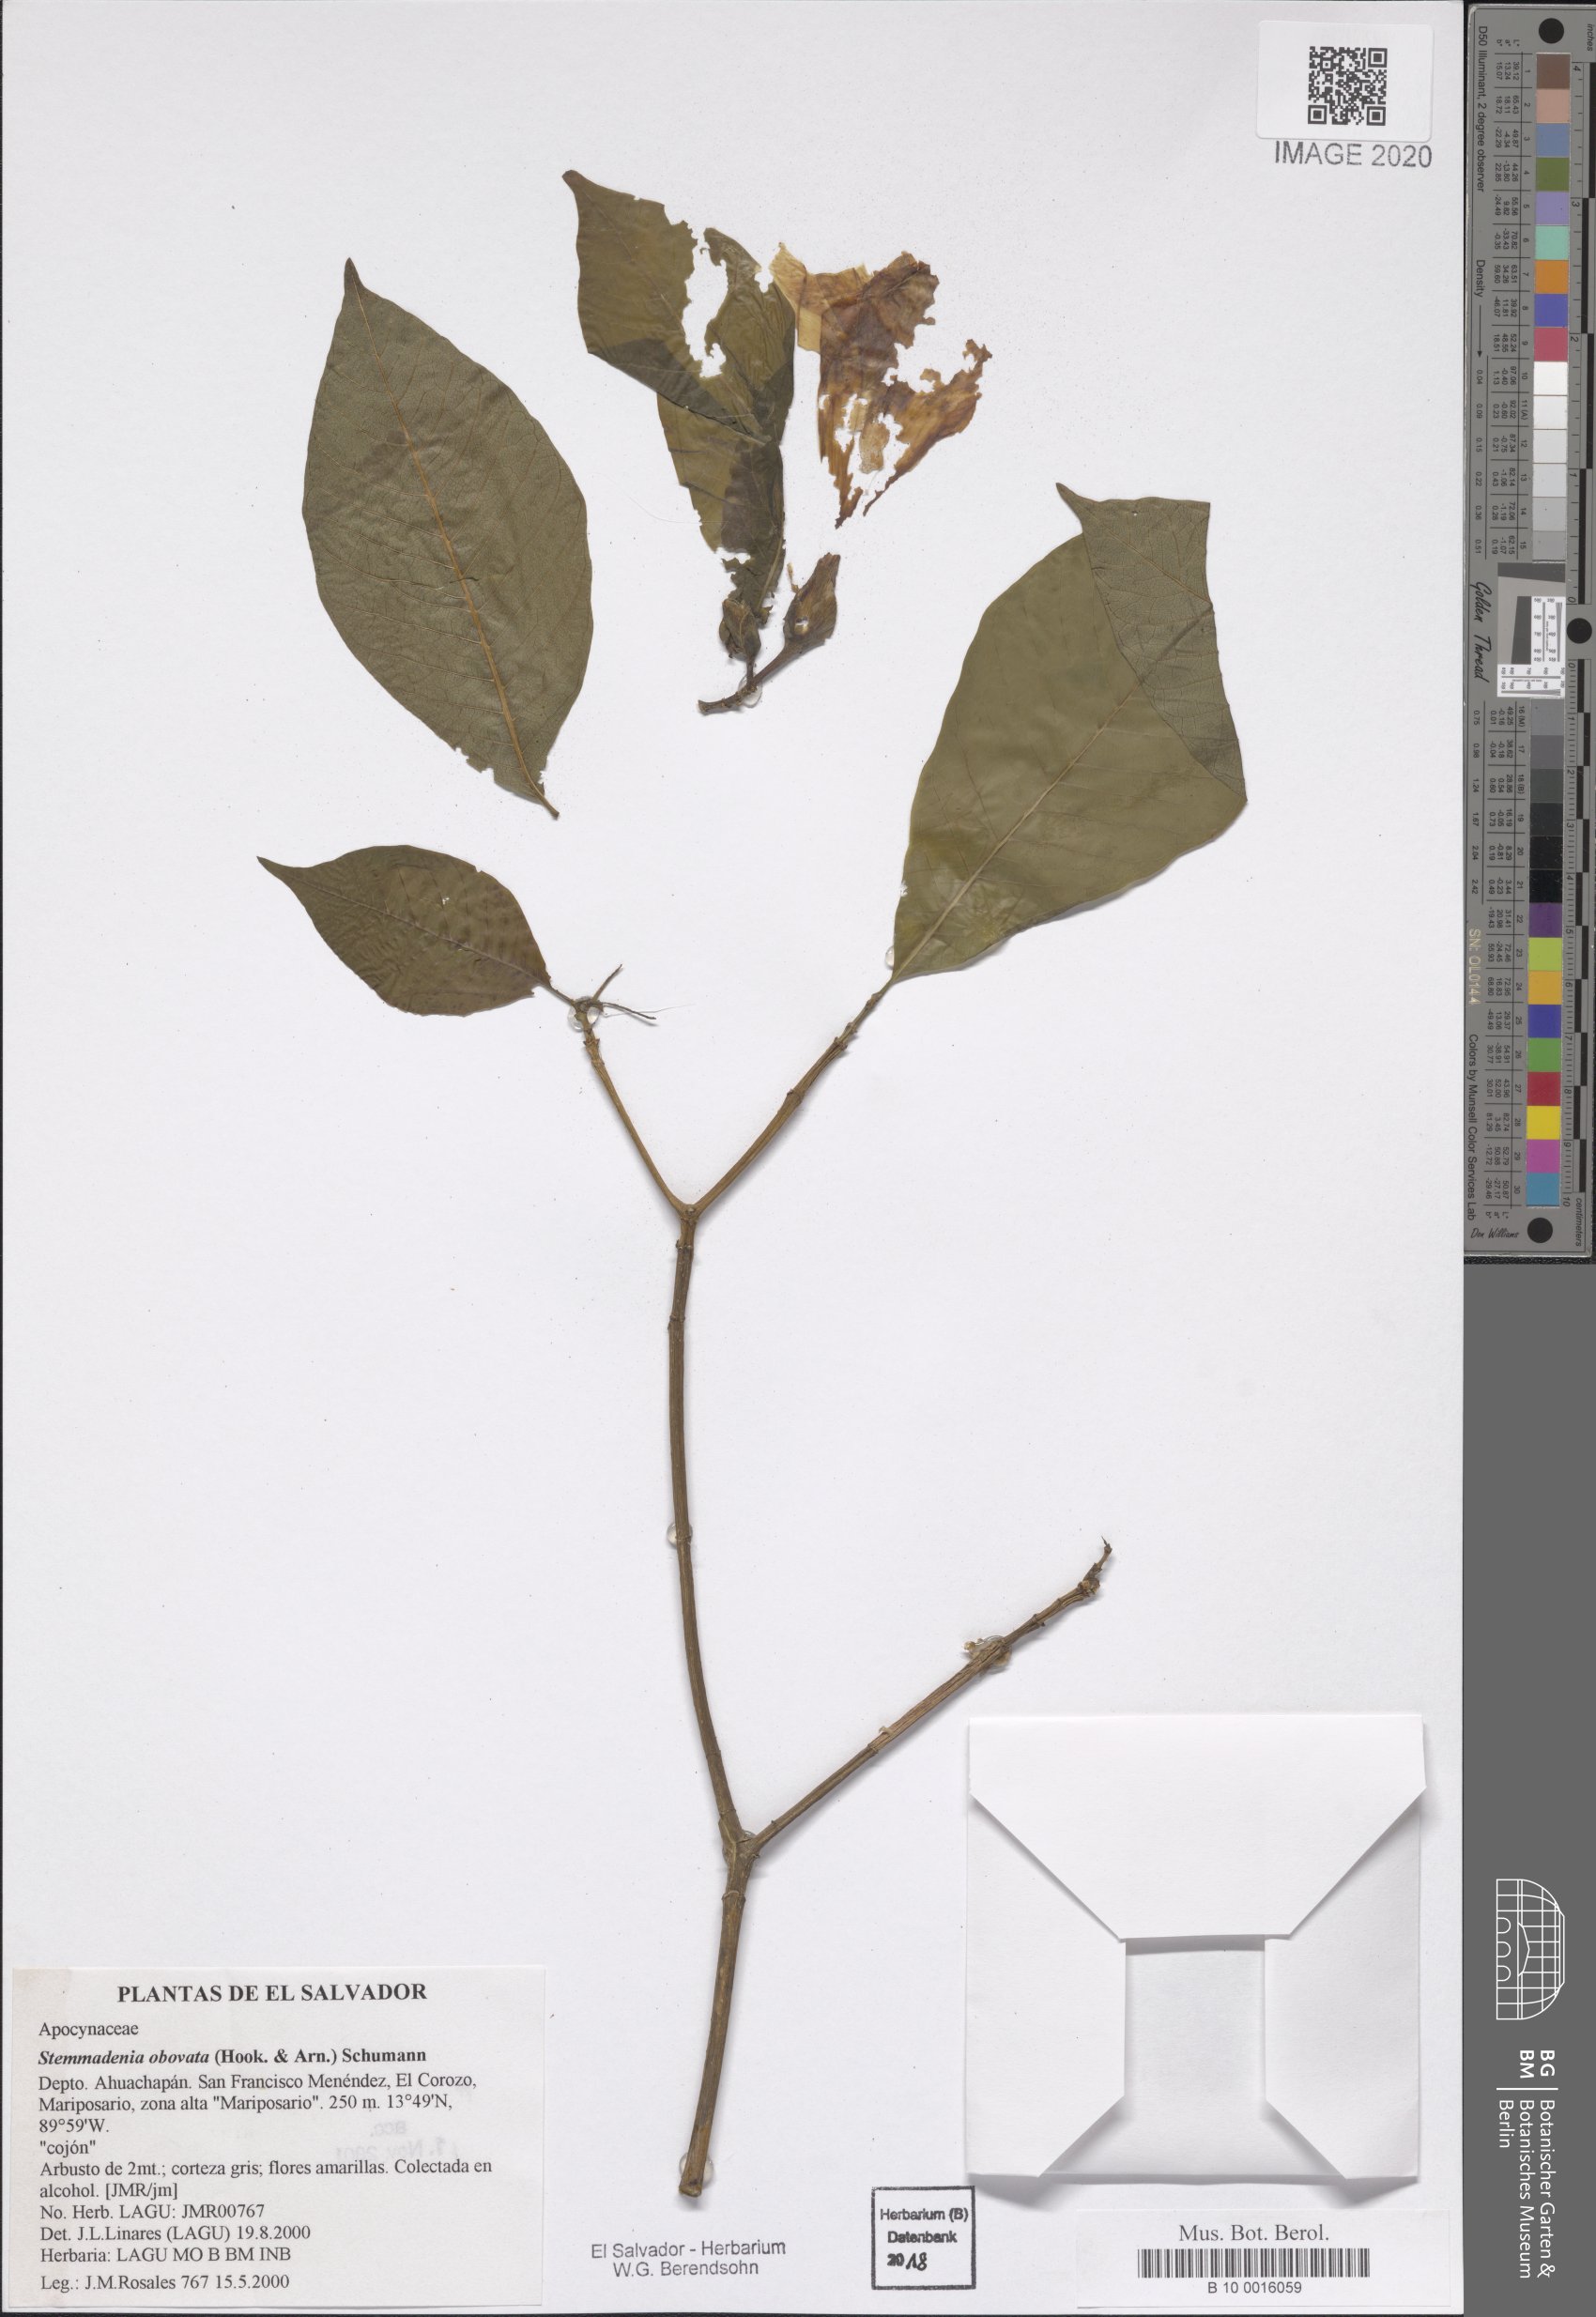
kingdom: Plantae
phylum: Tracheophyta
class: Magnoliopsida
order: Gentianales
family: Apocynaceae
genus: Tabernaemontana
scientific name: Tabernaemontana glabra
